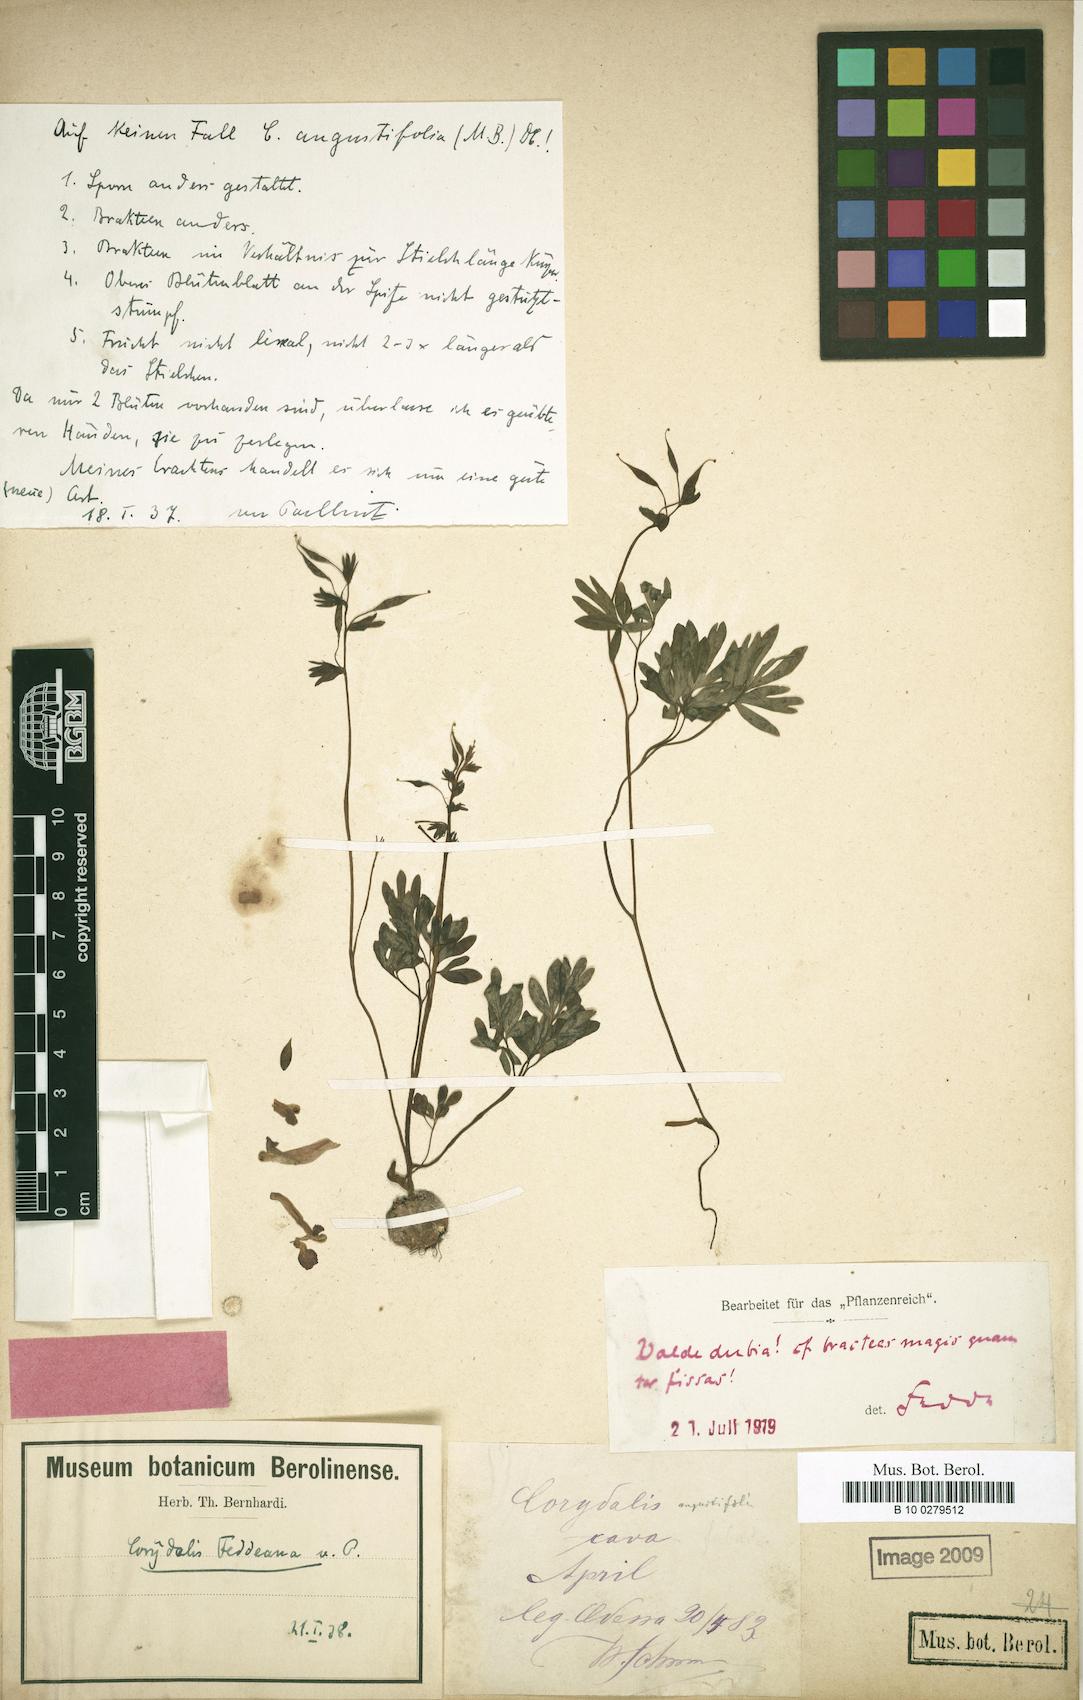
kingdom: Plantae
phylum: Tracheophyta
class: Magnoliopsida
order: Ranunculales
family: Papaveraceae
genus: Corydalis
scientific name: Corydalis solida
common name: Bird-in-a-bush
